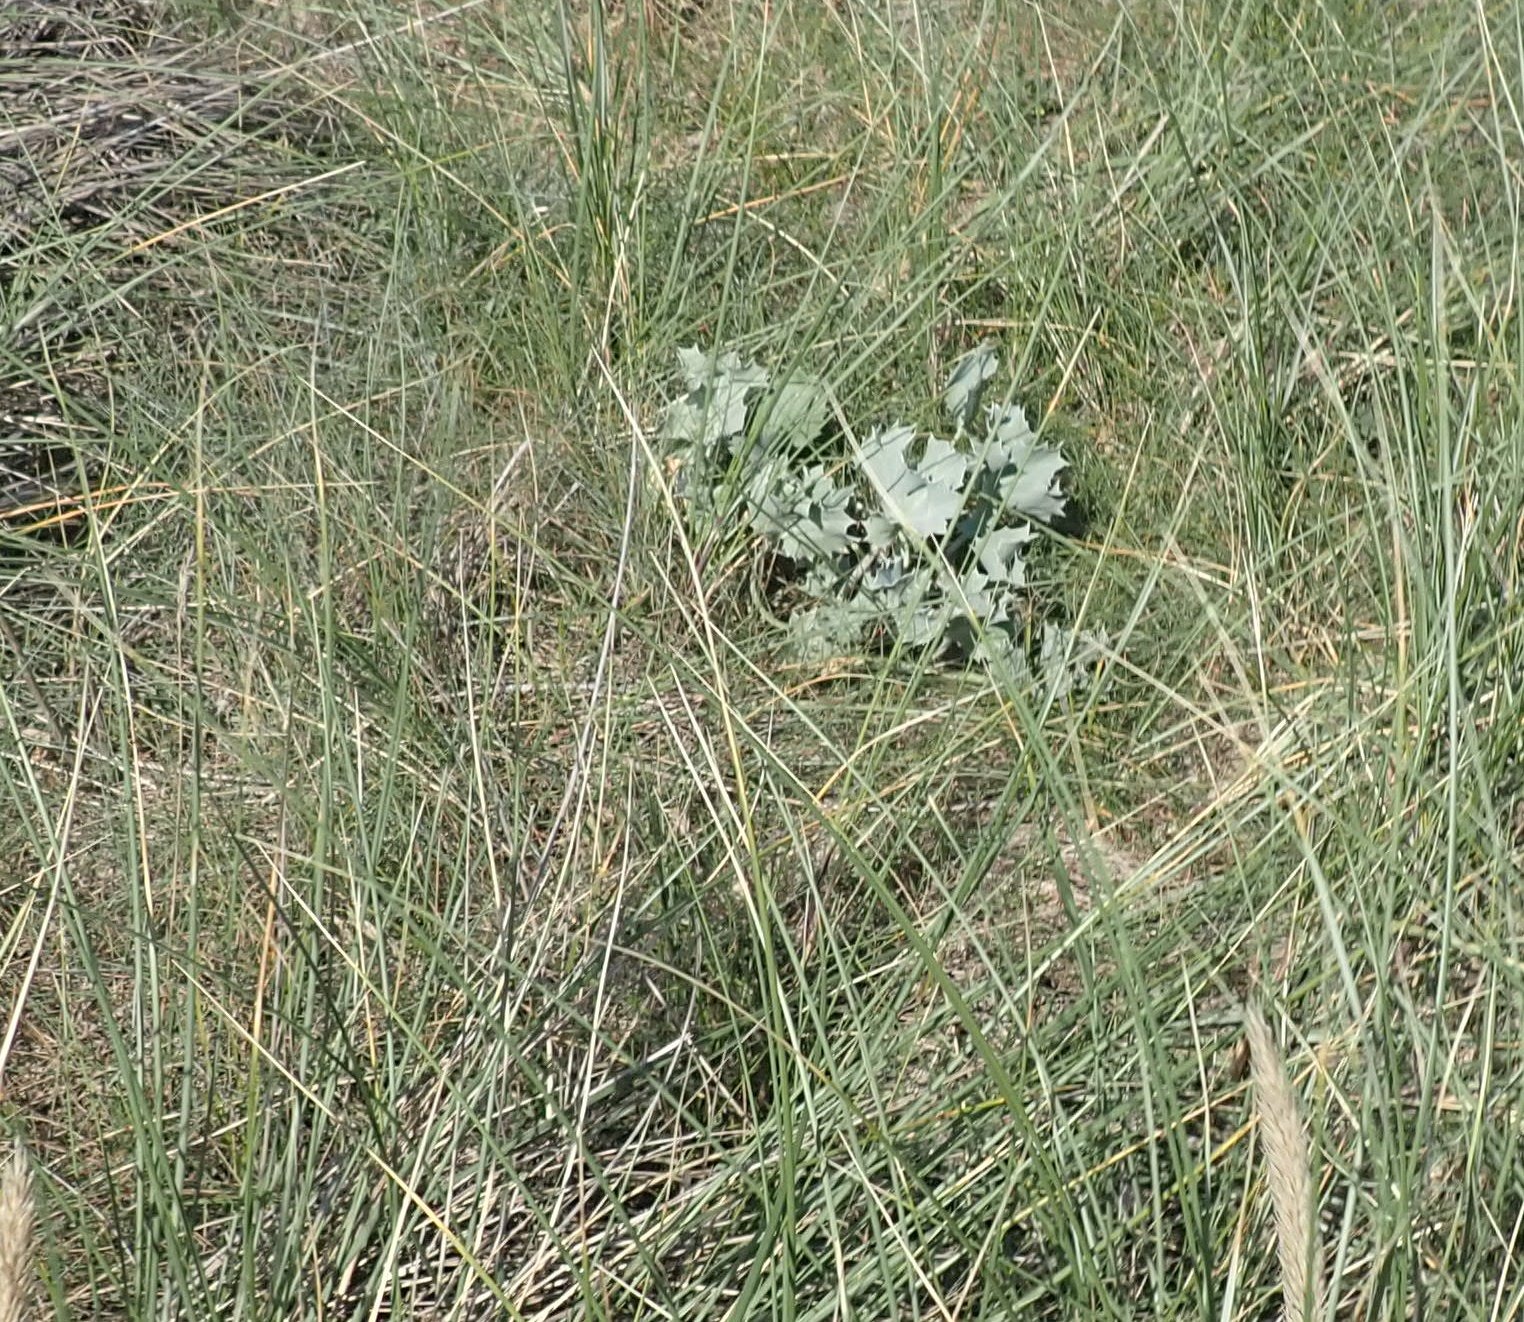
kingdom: Plantae
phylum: Tracheophyta
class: Magnoliopsida
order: Apiales
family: Apiaceae
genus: Eryngium
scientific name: Eryngium maritimum
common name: Strand-mandstro
